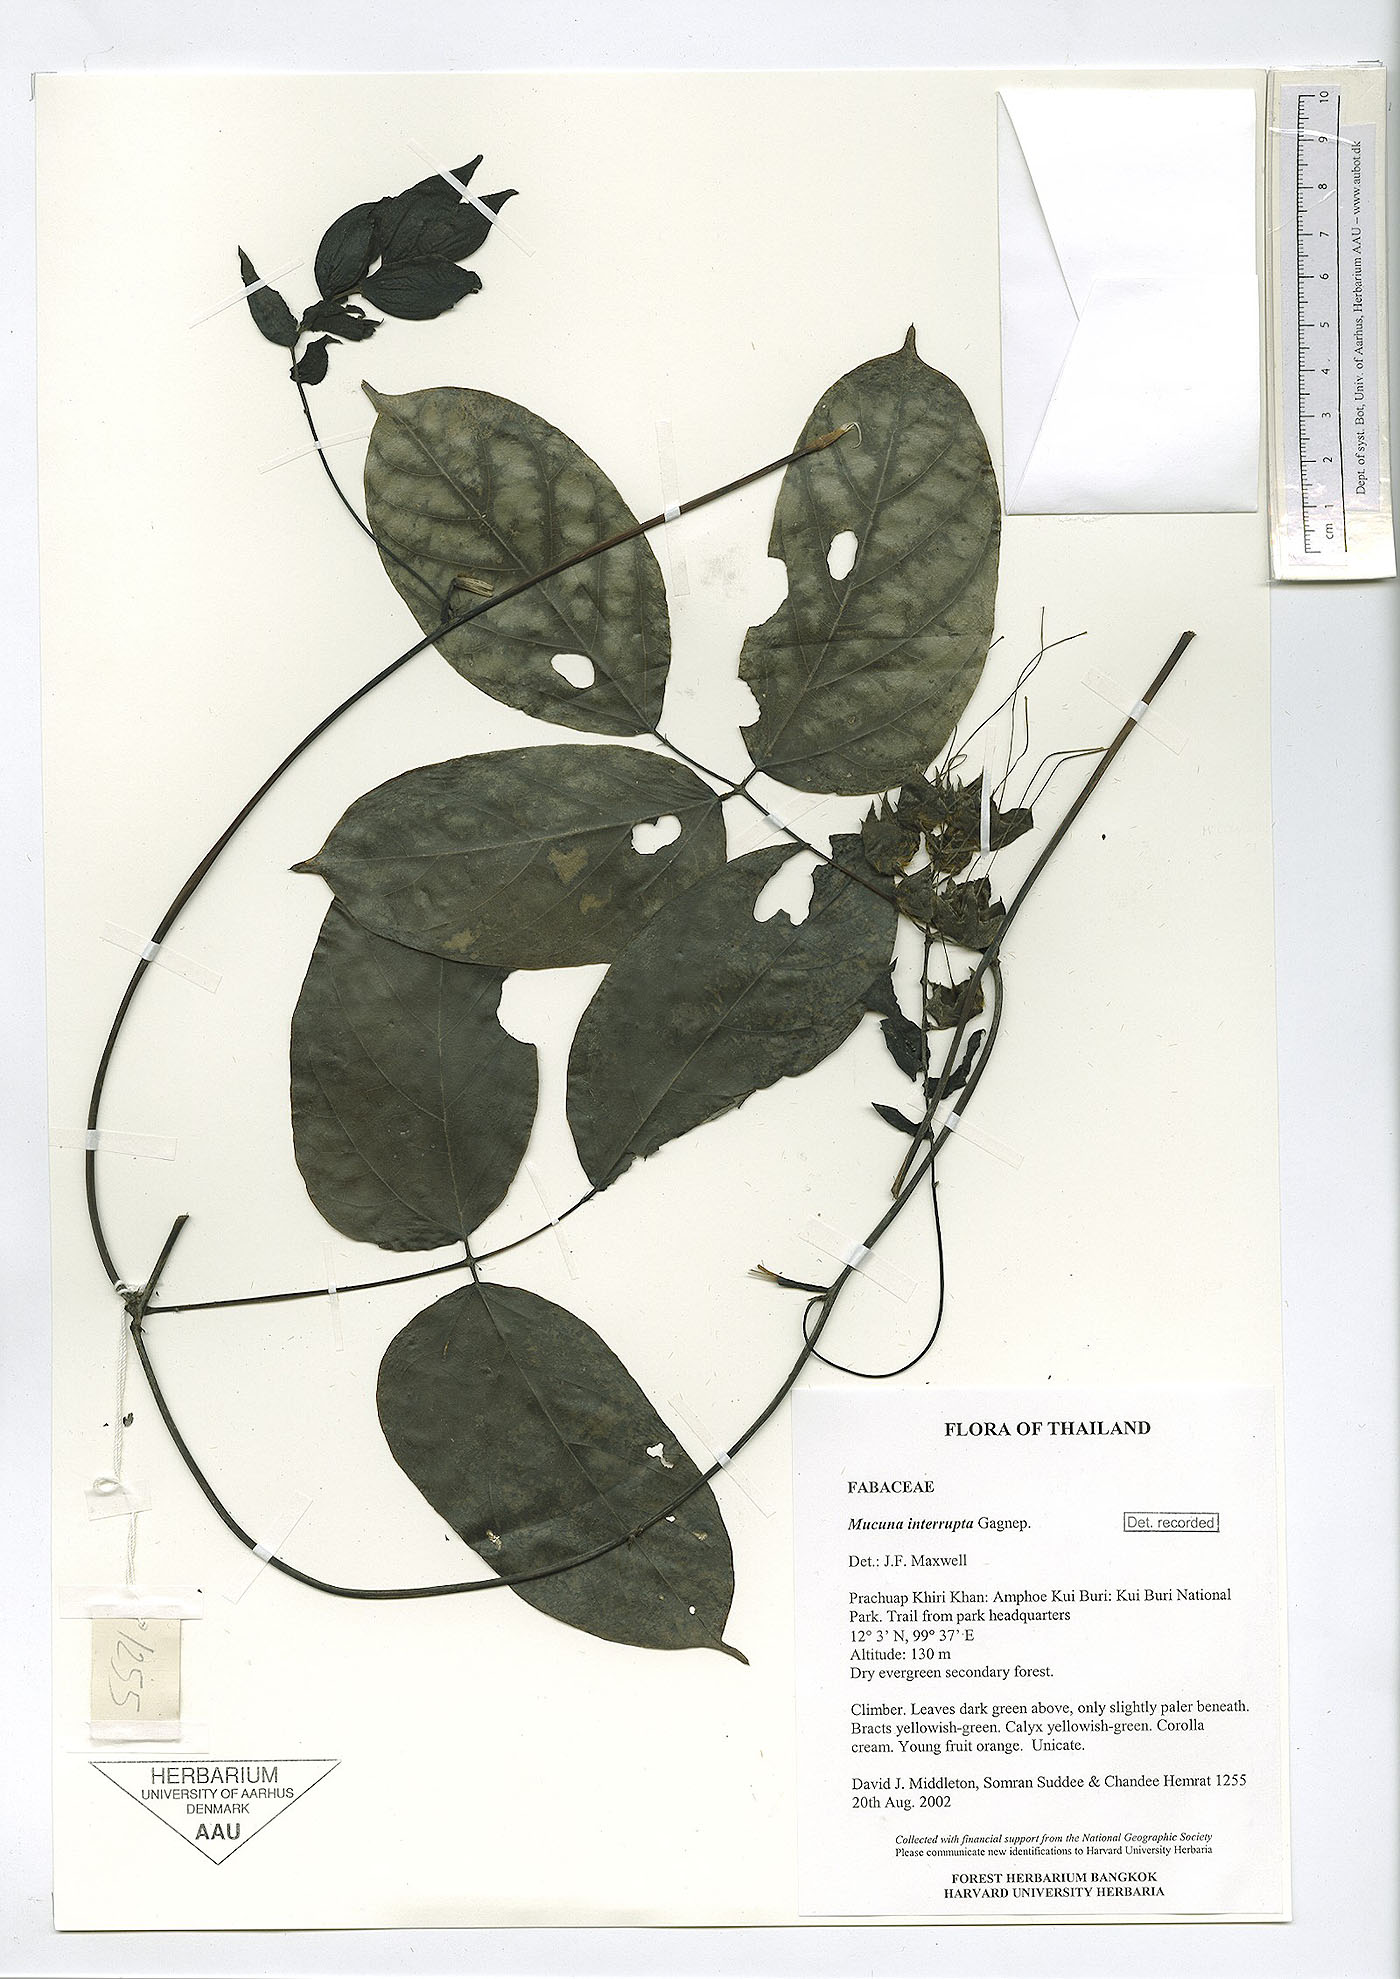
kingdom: Plantae
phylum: Tracheophyta
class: Magnoliopsida
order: Fabales
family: Fabaceae
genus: Mucuna
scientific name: Mucuna interrupta
